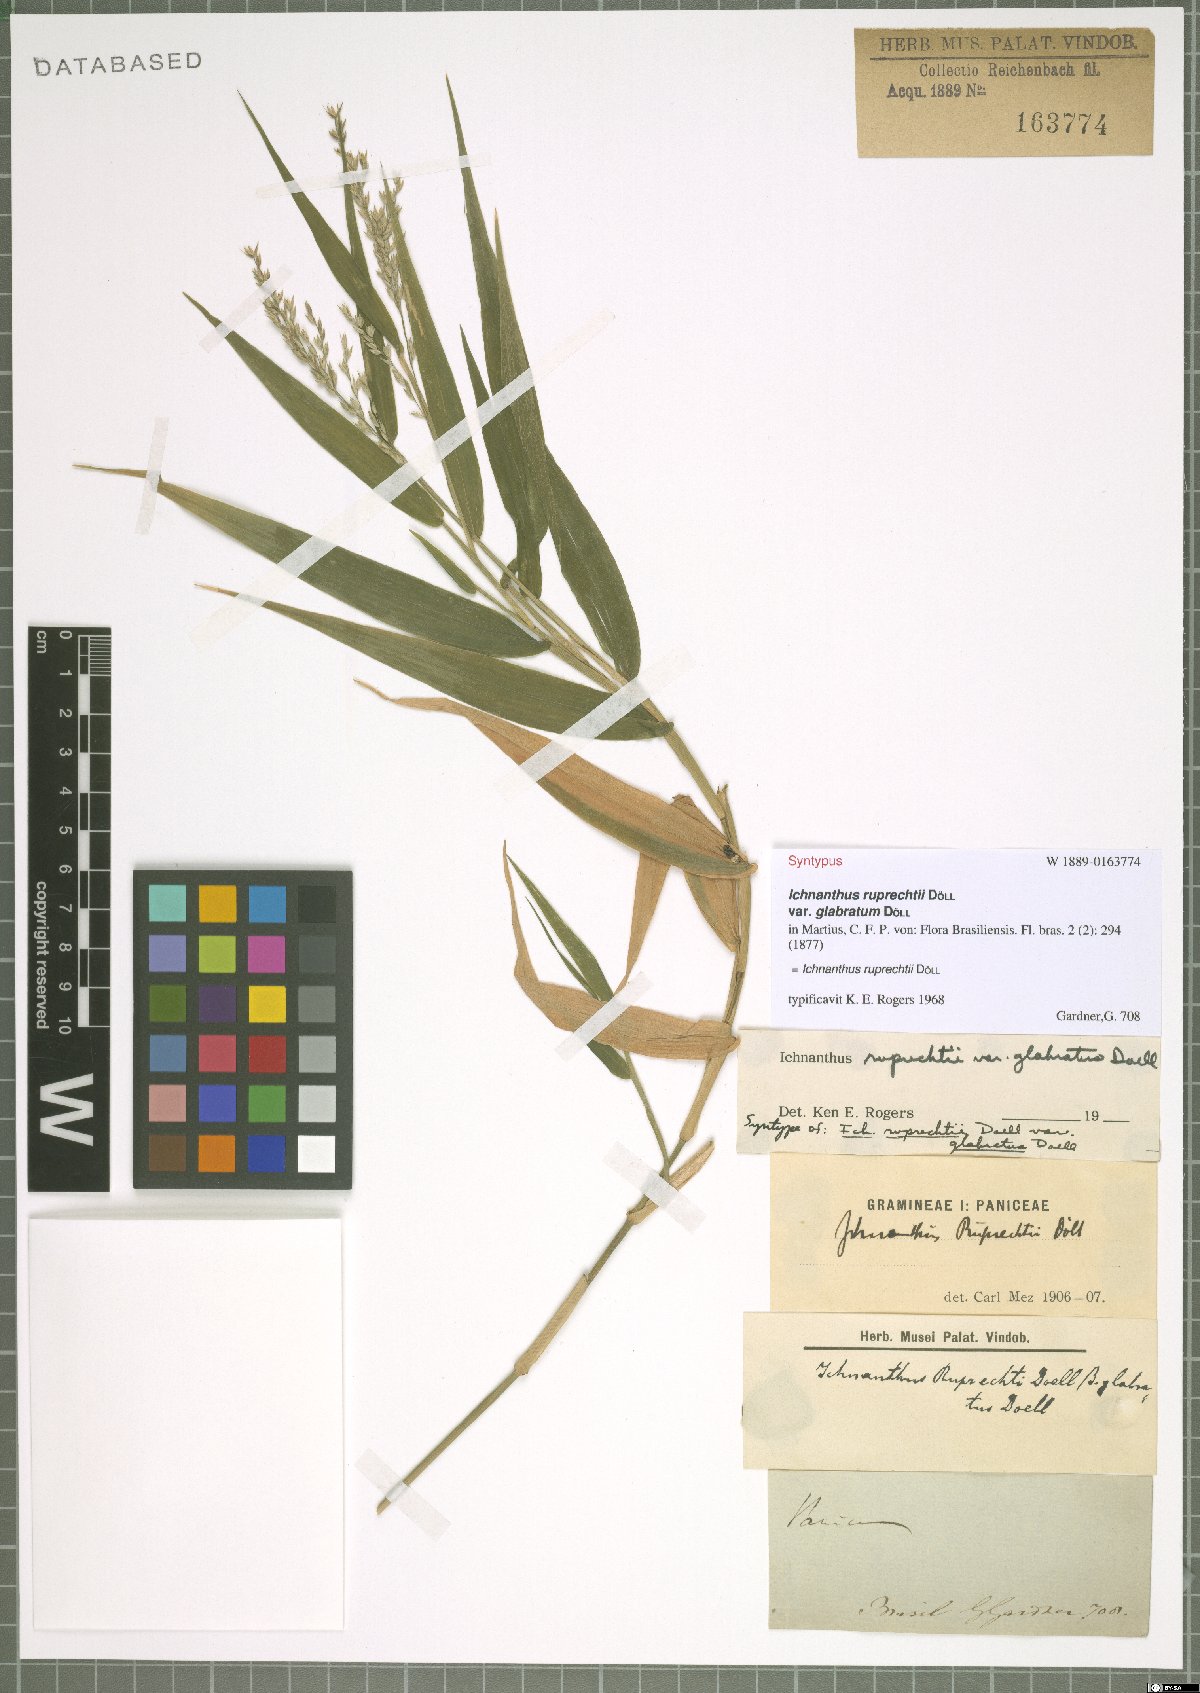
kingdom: Plantae
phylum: Tracheophyta
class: Liliopsida
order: Poales
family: Poaceae
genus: Ichnanthus
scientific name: Ichnanthus ruprechtii
